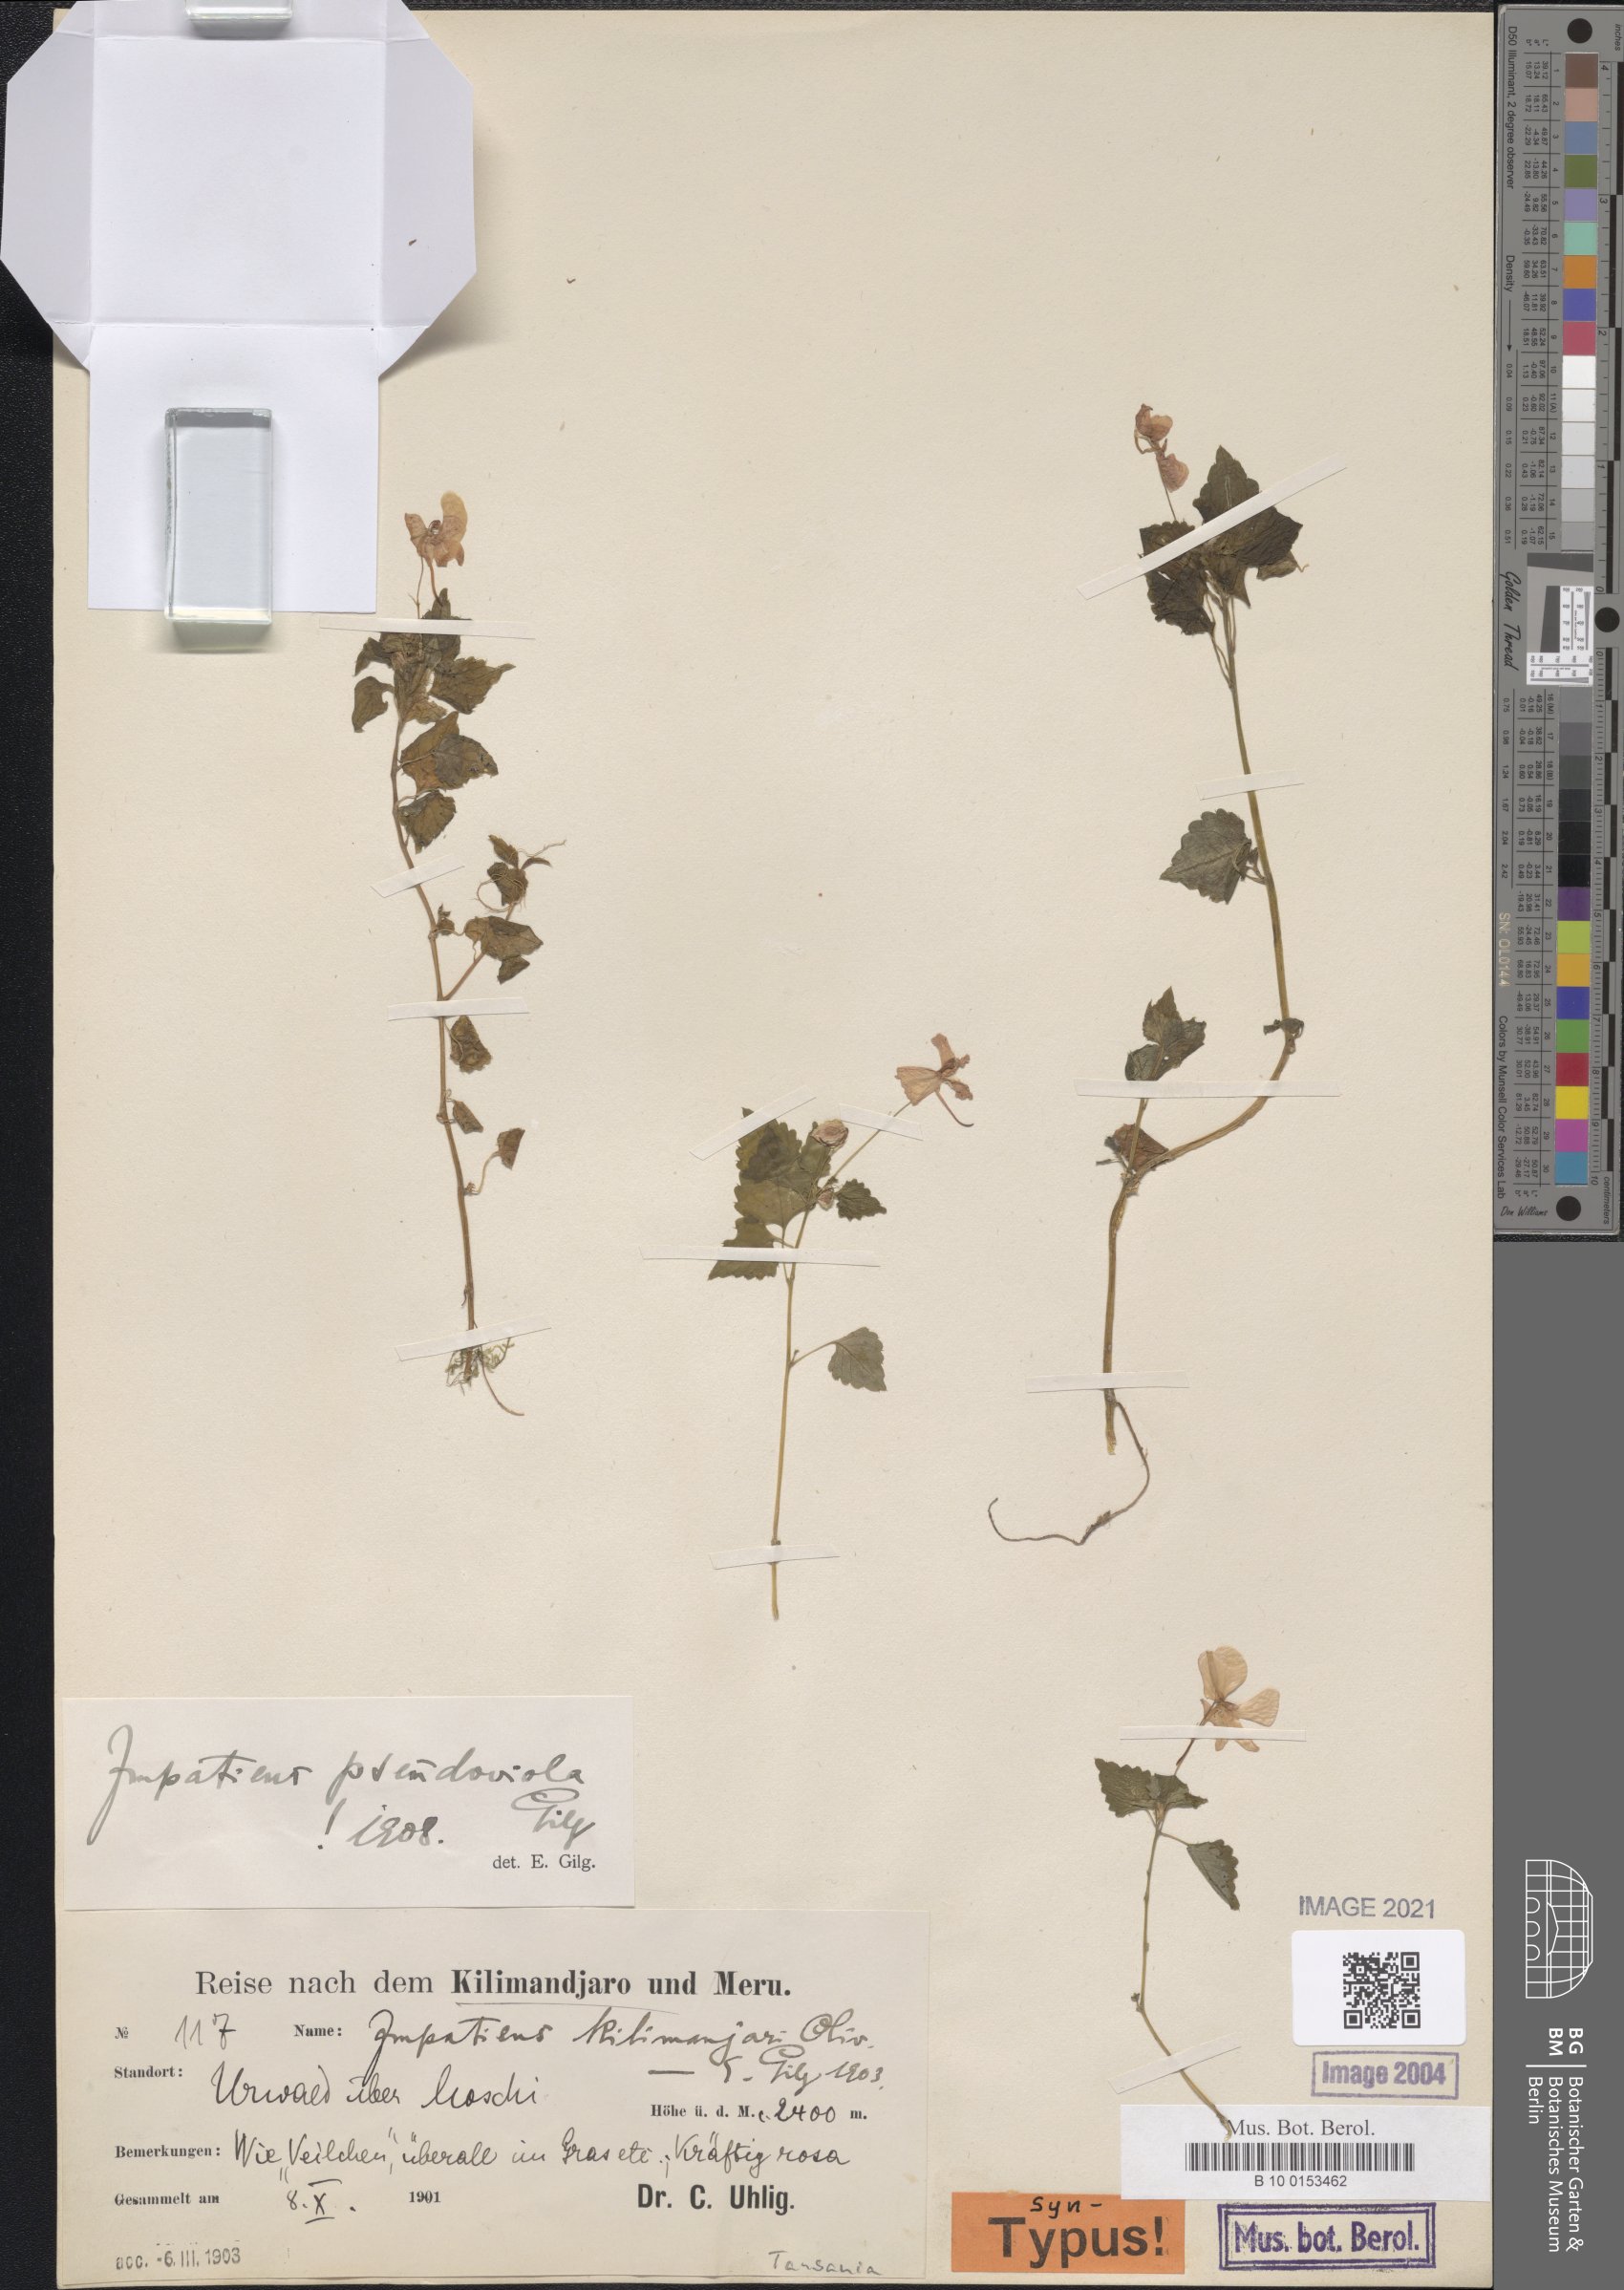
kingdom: Plantae
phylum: Tracheophyta
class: Magnoliopsida
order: Ericales
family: Balsaminaceae
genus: Impatiens
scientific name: Impatiens pseudoviola
